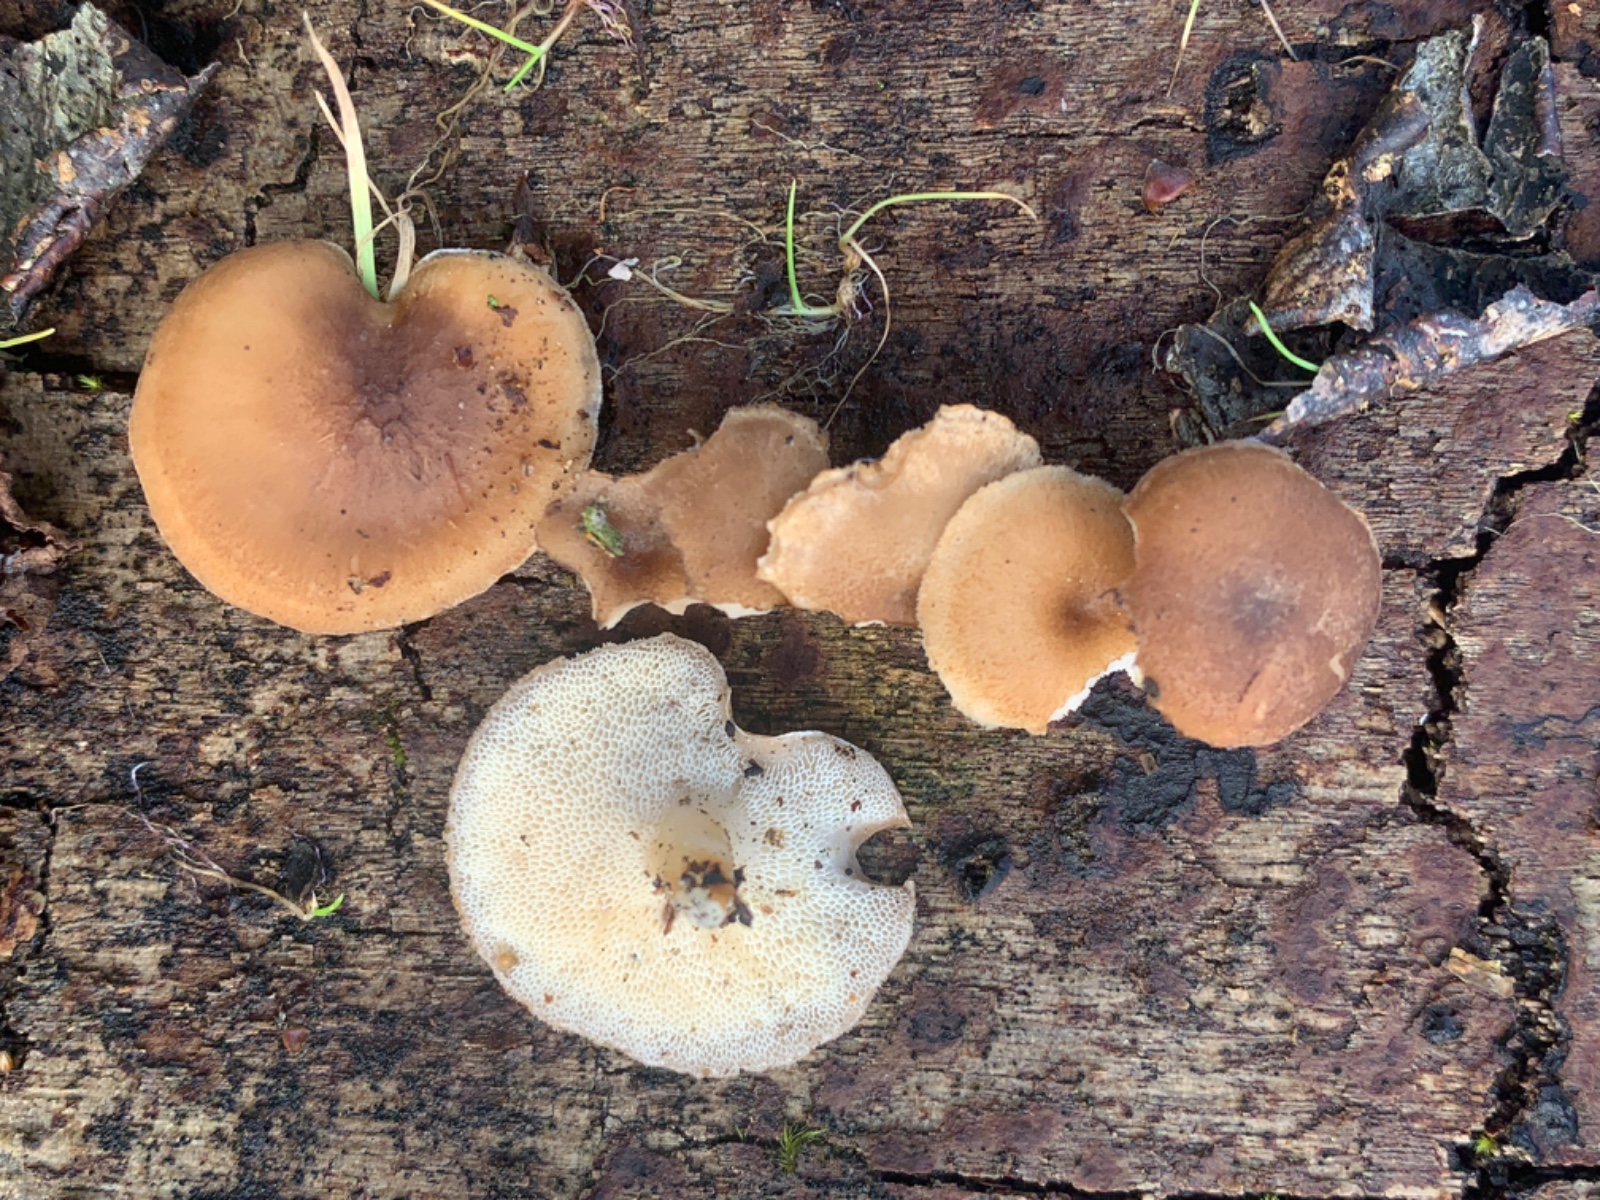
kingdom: Fungi
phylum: Basidiomycota
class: Agaricomycetes
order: Polyporales
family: Polyporaceae
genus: Lentinus
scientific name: Lentinus brumalis
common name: vinter-stilkporesvamp
